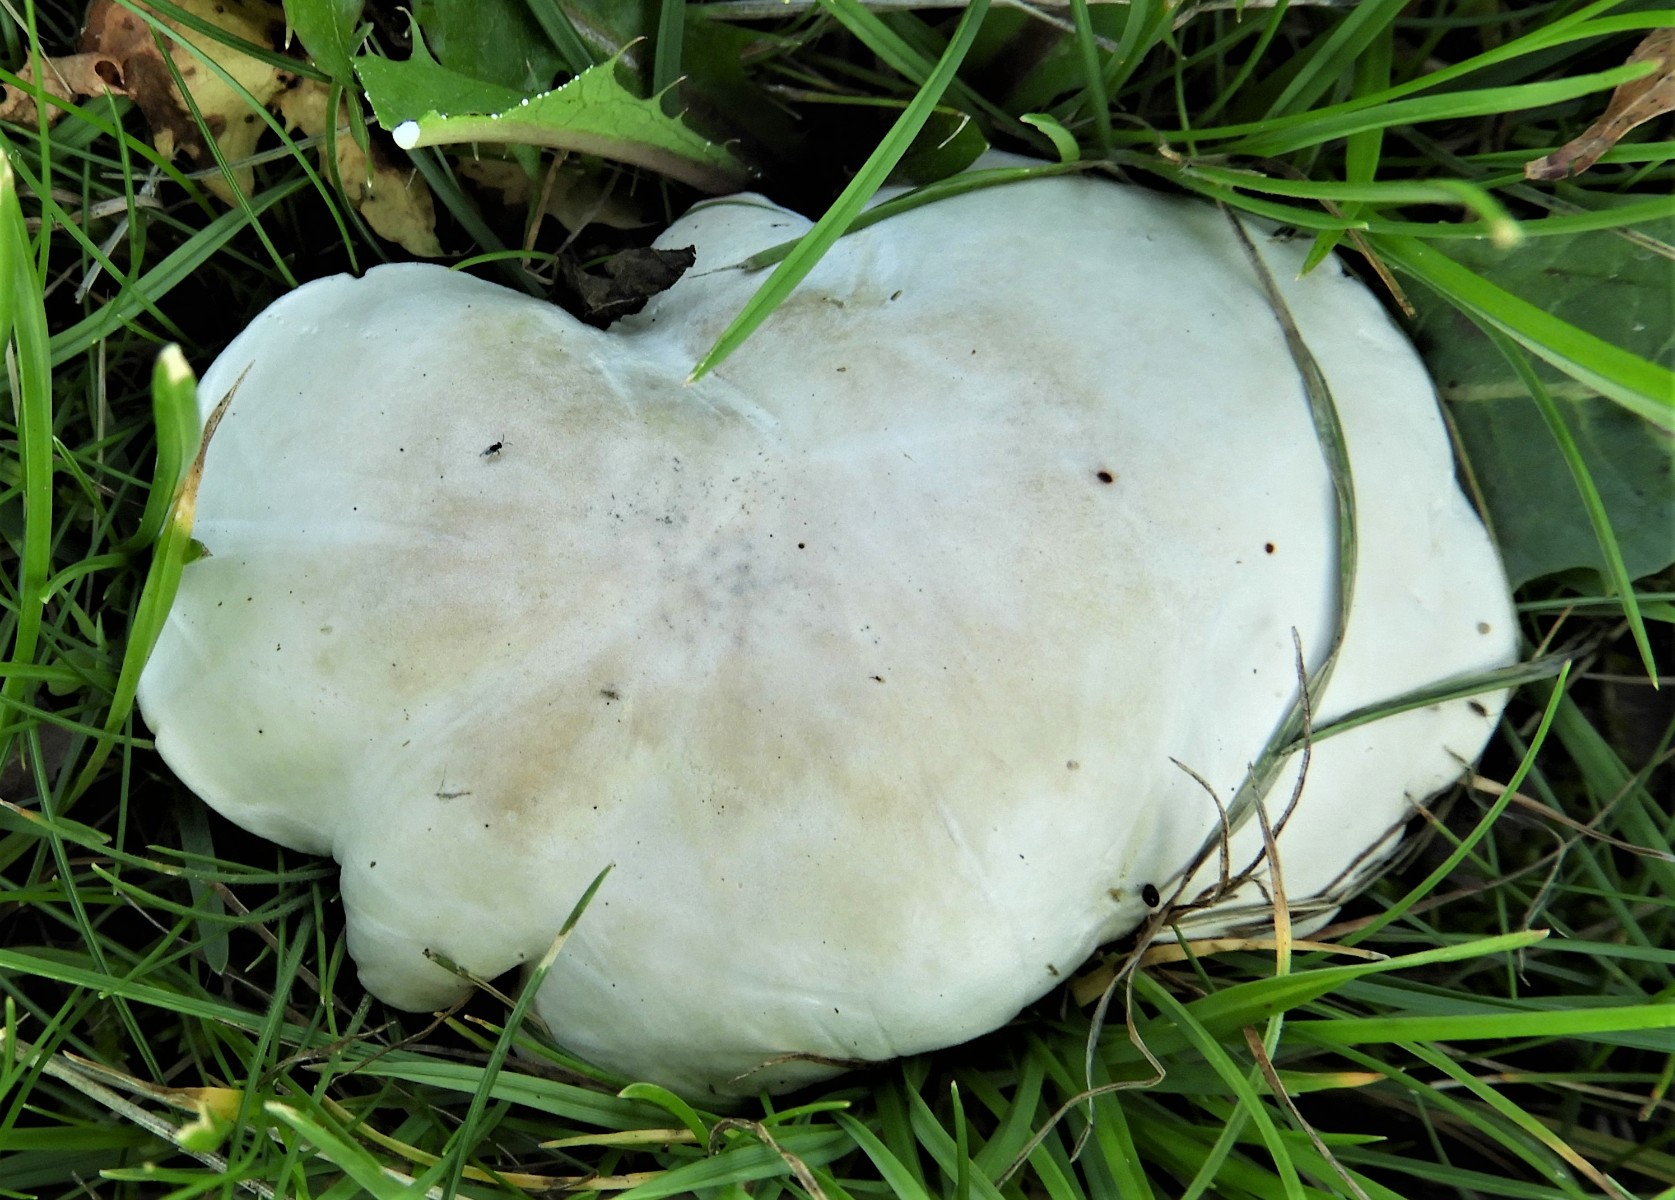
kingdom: Fungi
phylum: Basidiomycota
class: Agaricomycetes
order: Agaricales
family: Entolomataceae
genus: Clitopilus
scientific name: Clitopilus prunulus
